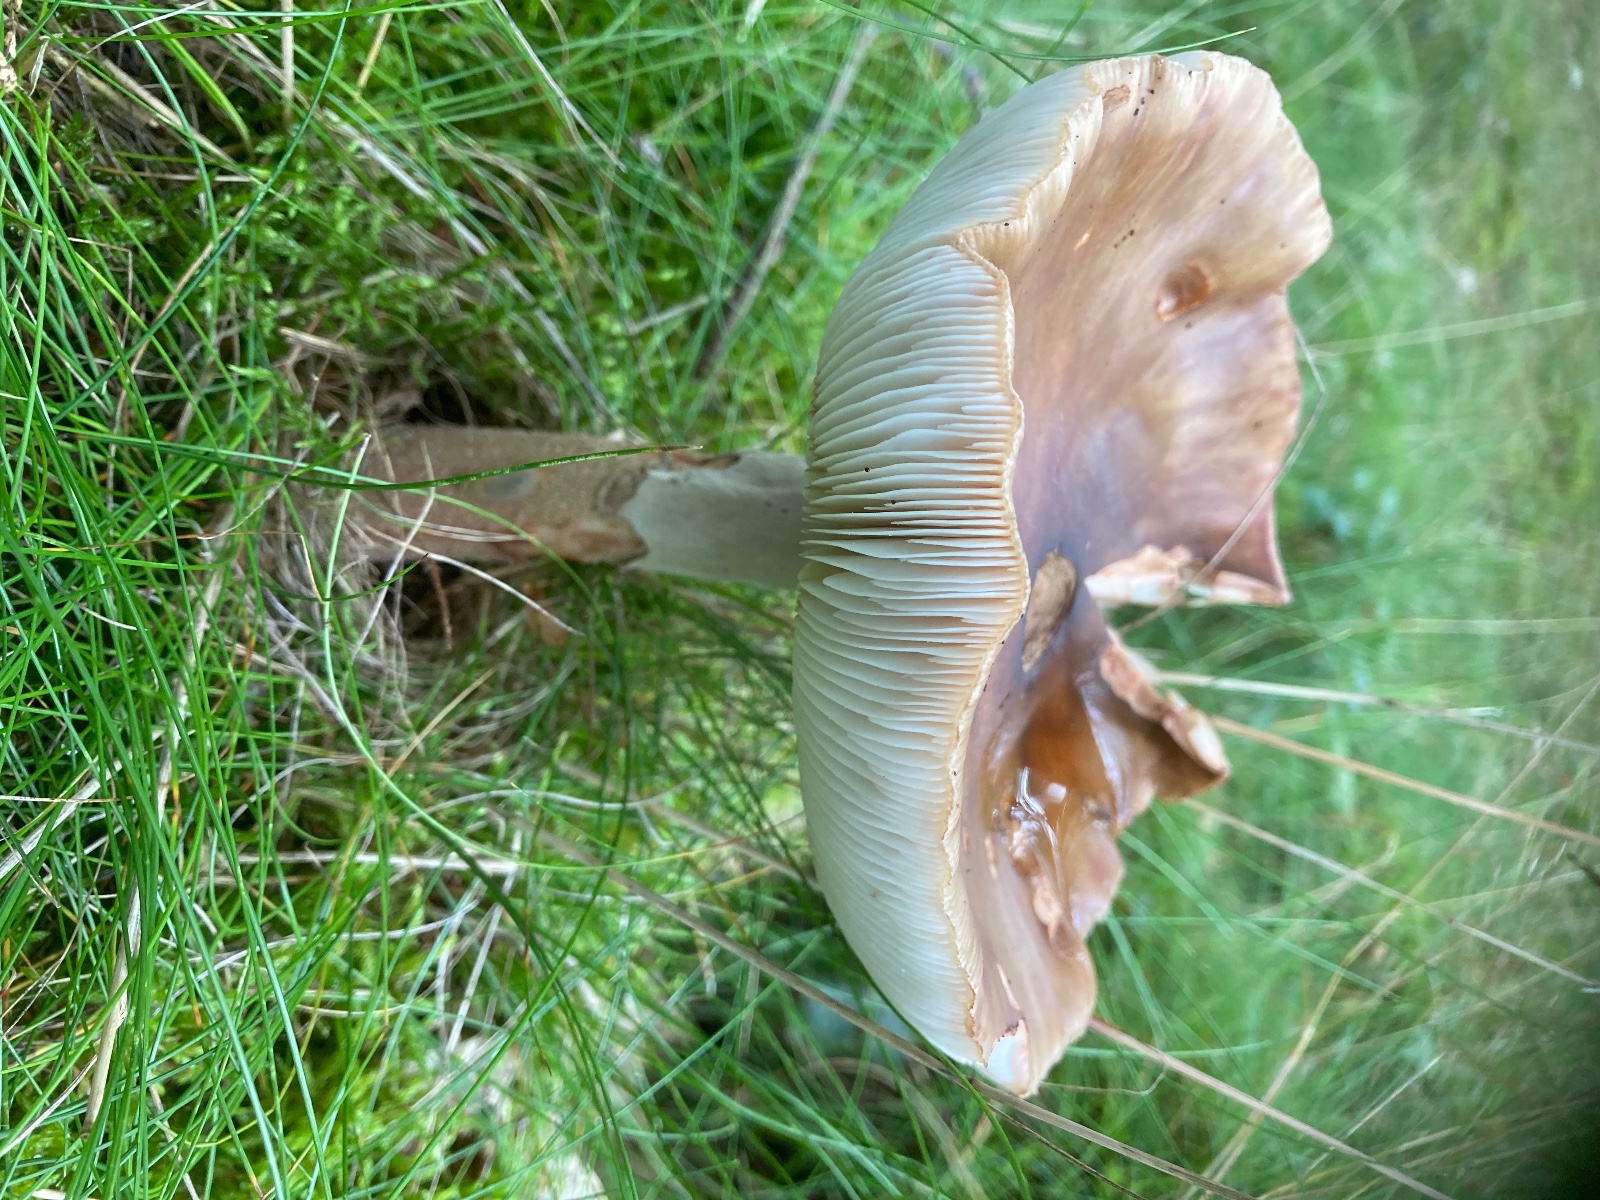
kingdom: Fungi
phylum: Basidiomycota
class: Agaricomycetes
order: Agaricales
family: Amanitaceae
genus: Amanita
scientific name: Amanita rubescens
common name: rødmende fluesvamp
